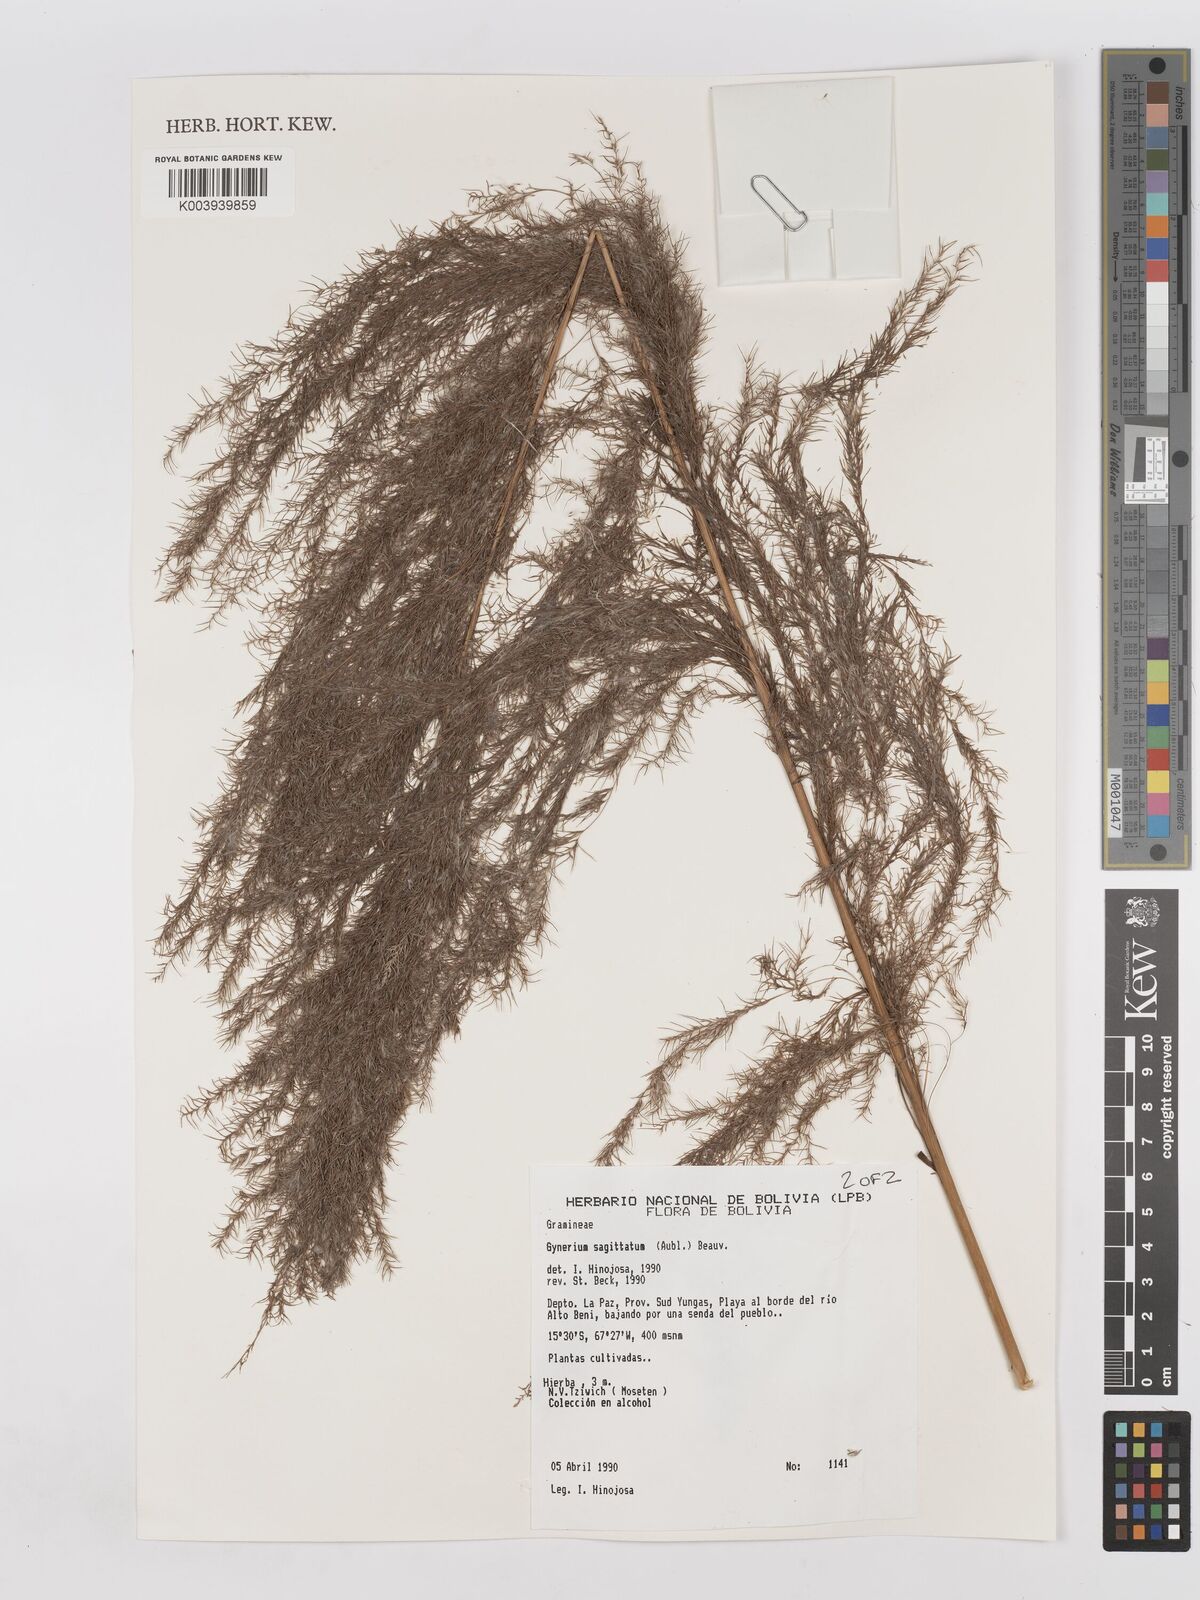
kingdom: Plantae
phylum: Tracheophyta
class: Liliopsida
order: Poales
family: Poaceae
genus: Gynerium
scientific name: Gynerium sagittatum
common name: Wild cane
